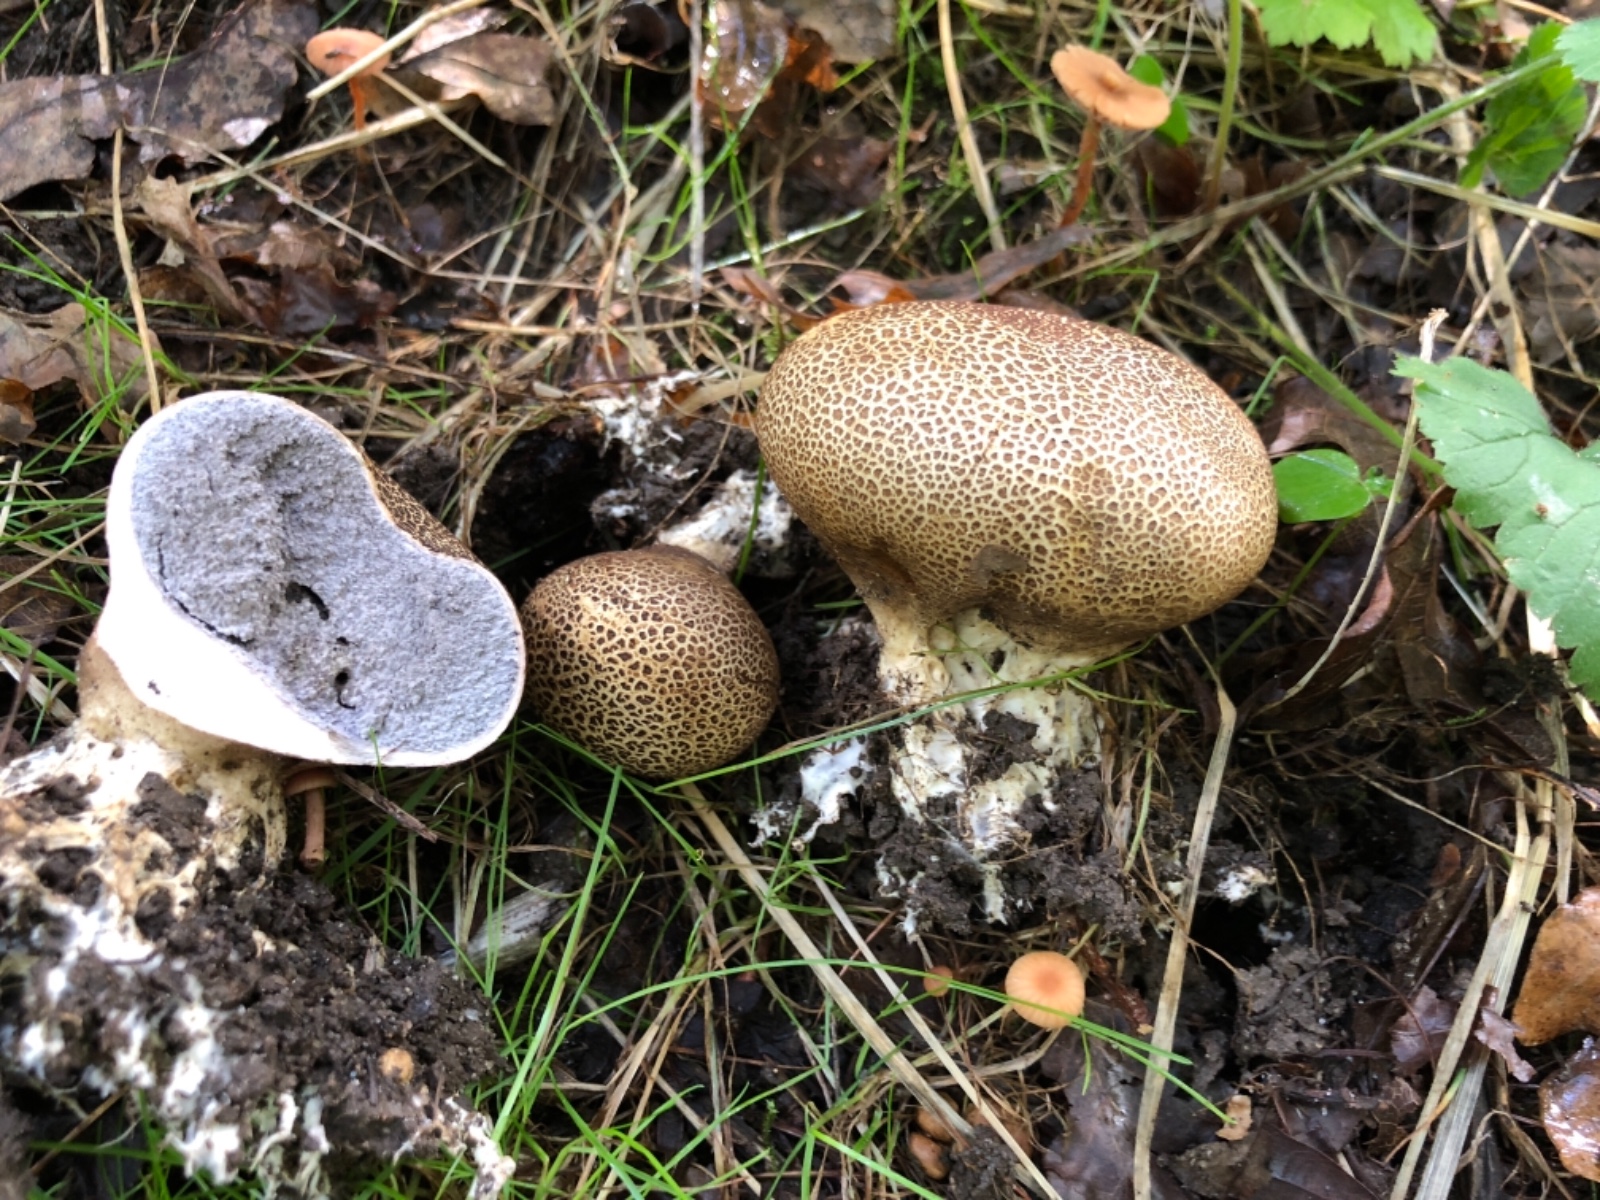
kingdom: Fungi
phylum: Basidiomycota
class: Agaricomycetes
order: Boletales
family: Sclerodermataceae
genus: Scleroderma
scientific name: Scleroderma verrucosum
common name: stilket bruskbold
